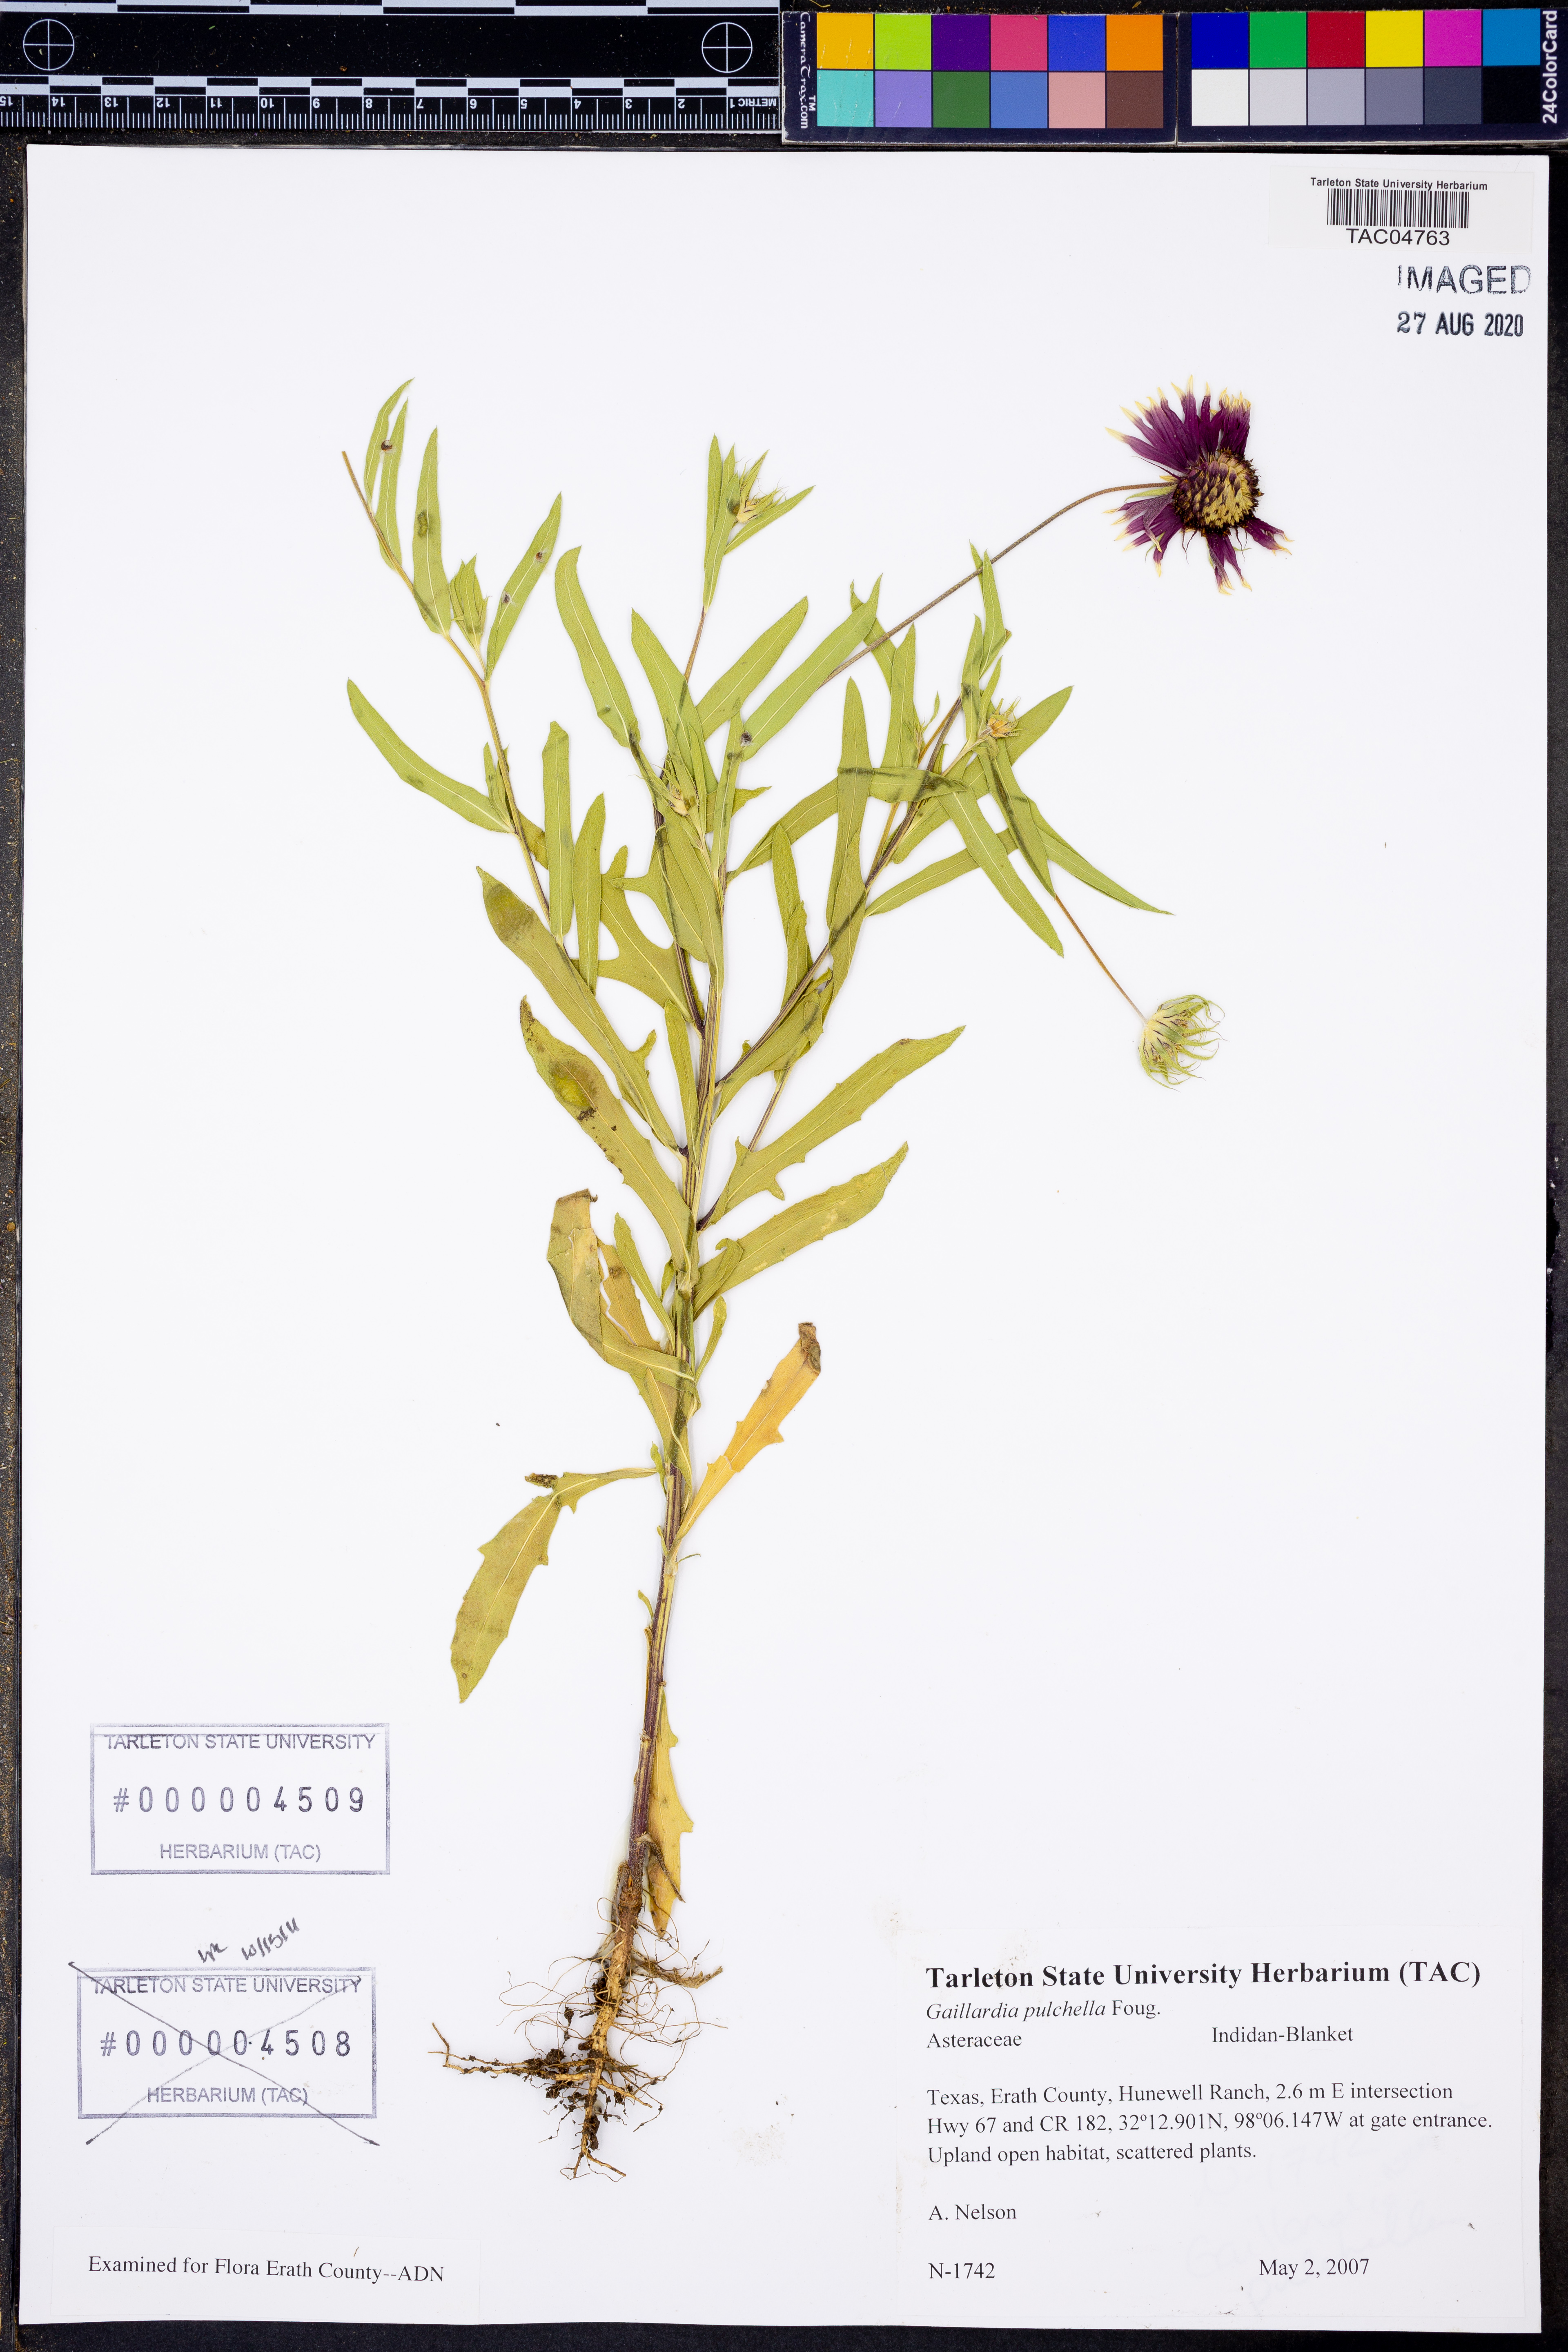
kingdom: Plantae
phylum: Tracheophyta
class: Magnoliopsida
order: Asterales
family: Asteraceae
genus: Gaillardia
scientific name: Gaillardia pulchella
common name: Firewheel
